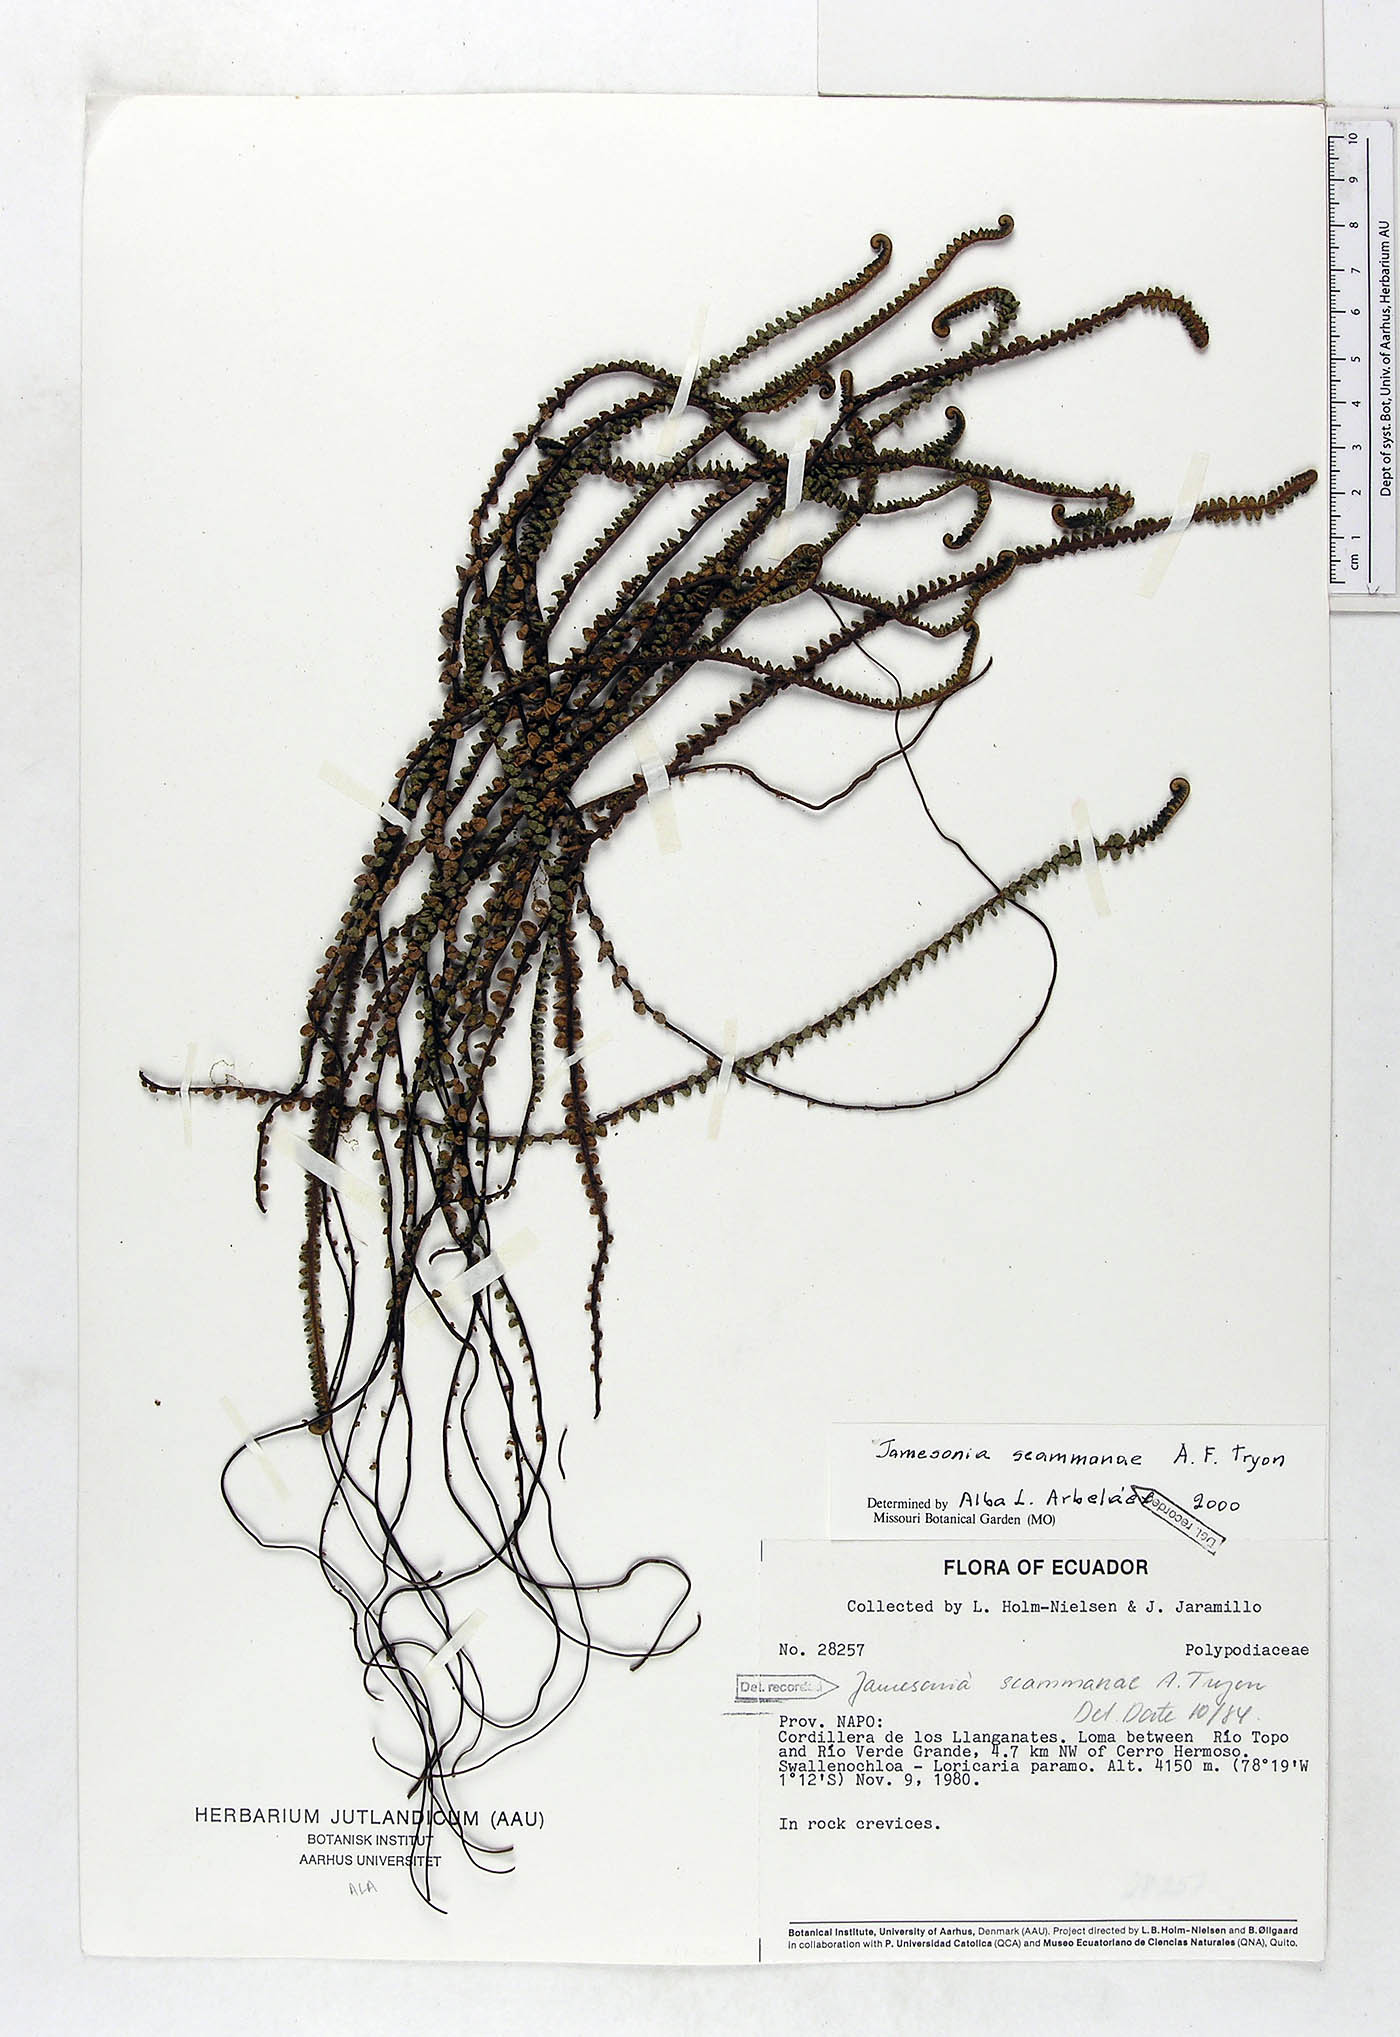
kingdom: Plantae
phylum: Tracheophyta
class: Polypodiopsida
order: Polypodiales
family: Pteridaceae
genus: Jamesonia
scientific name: Jamesonia scammanae
